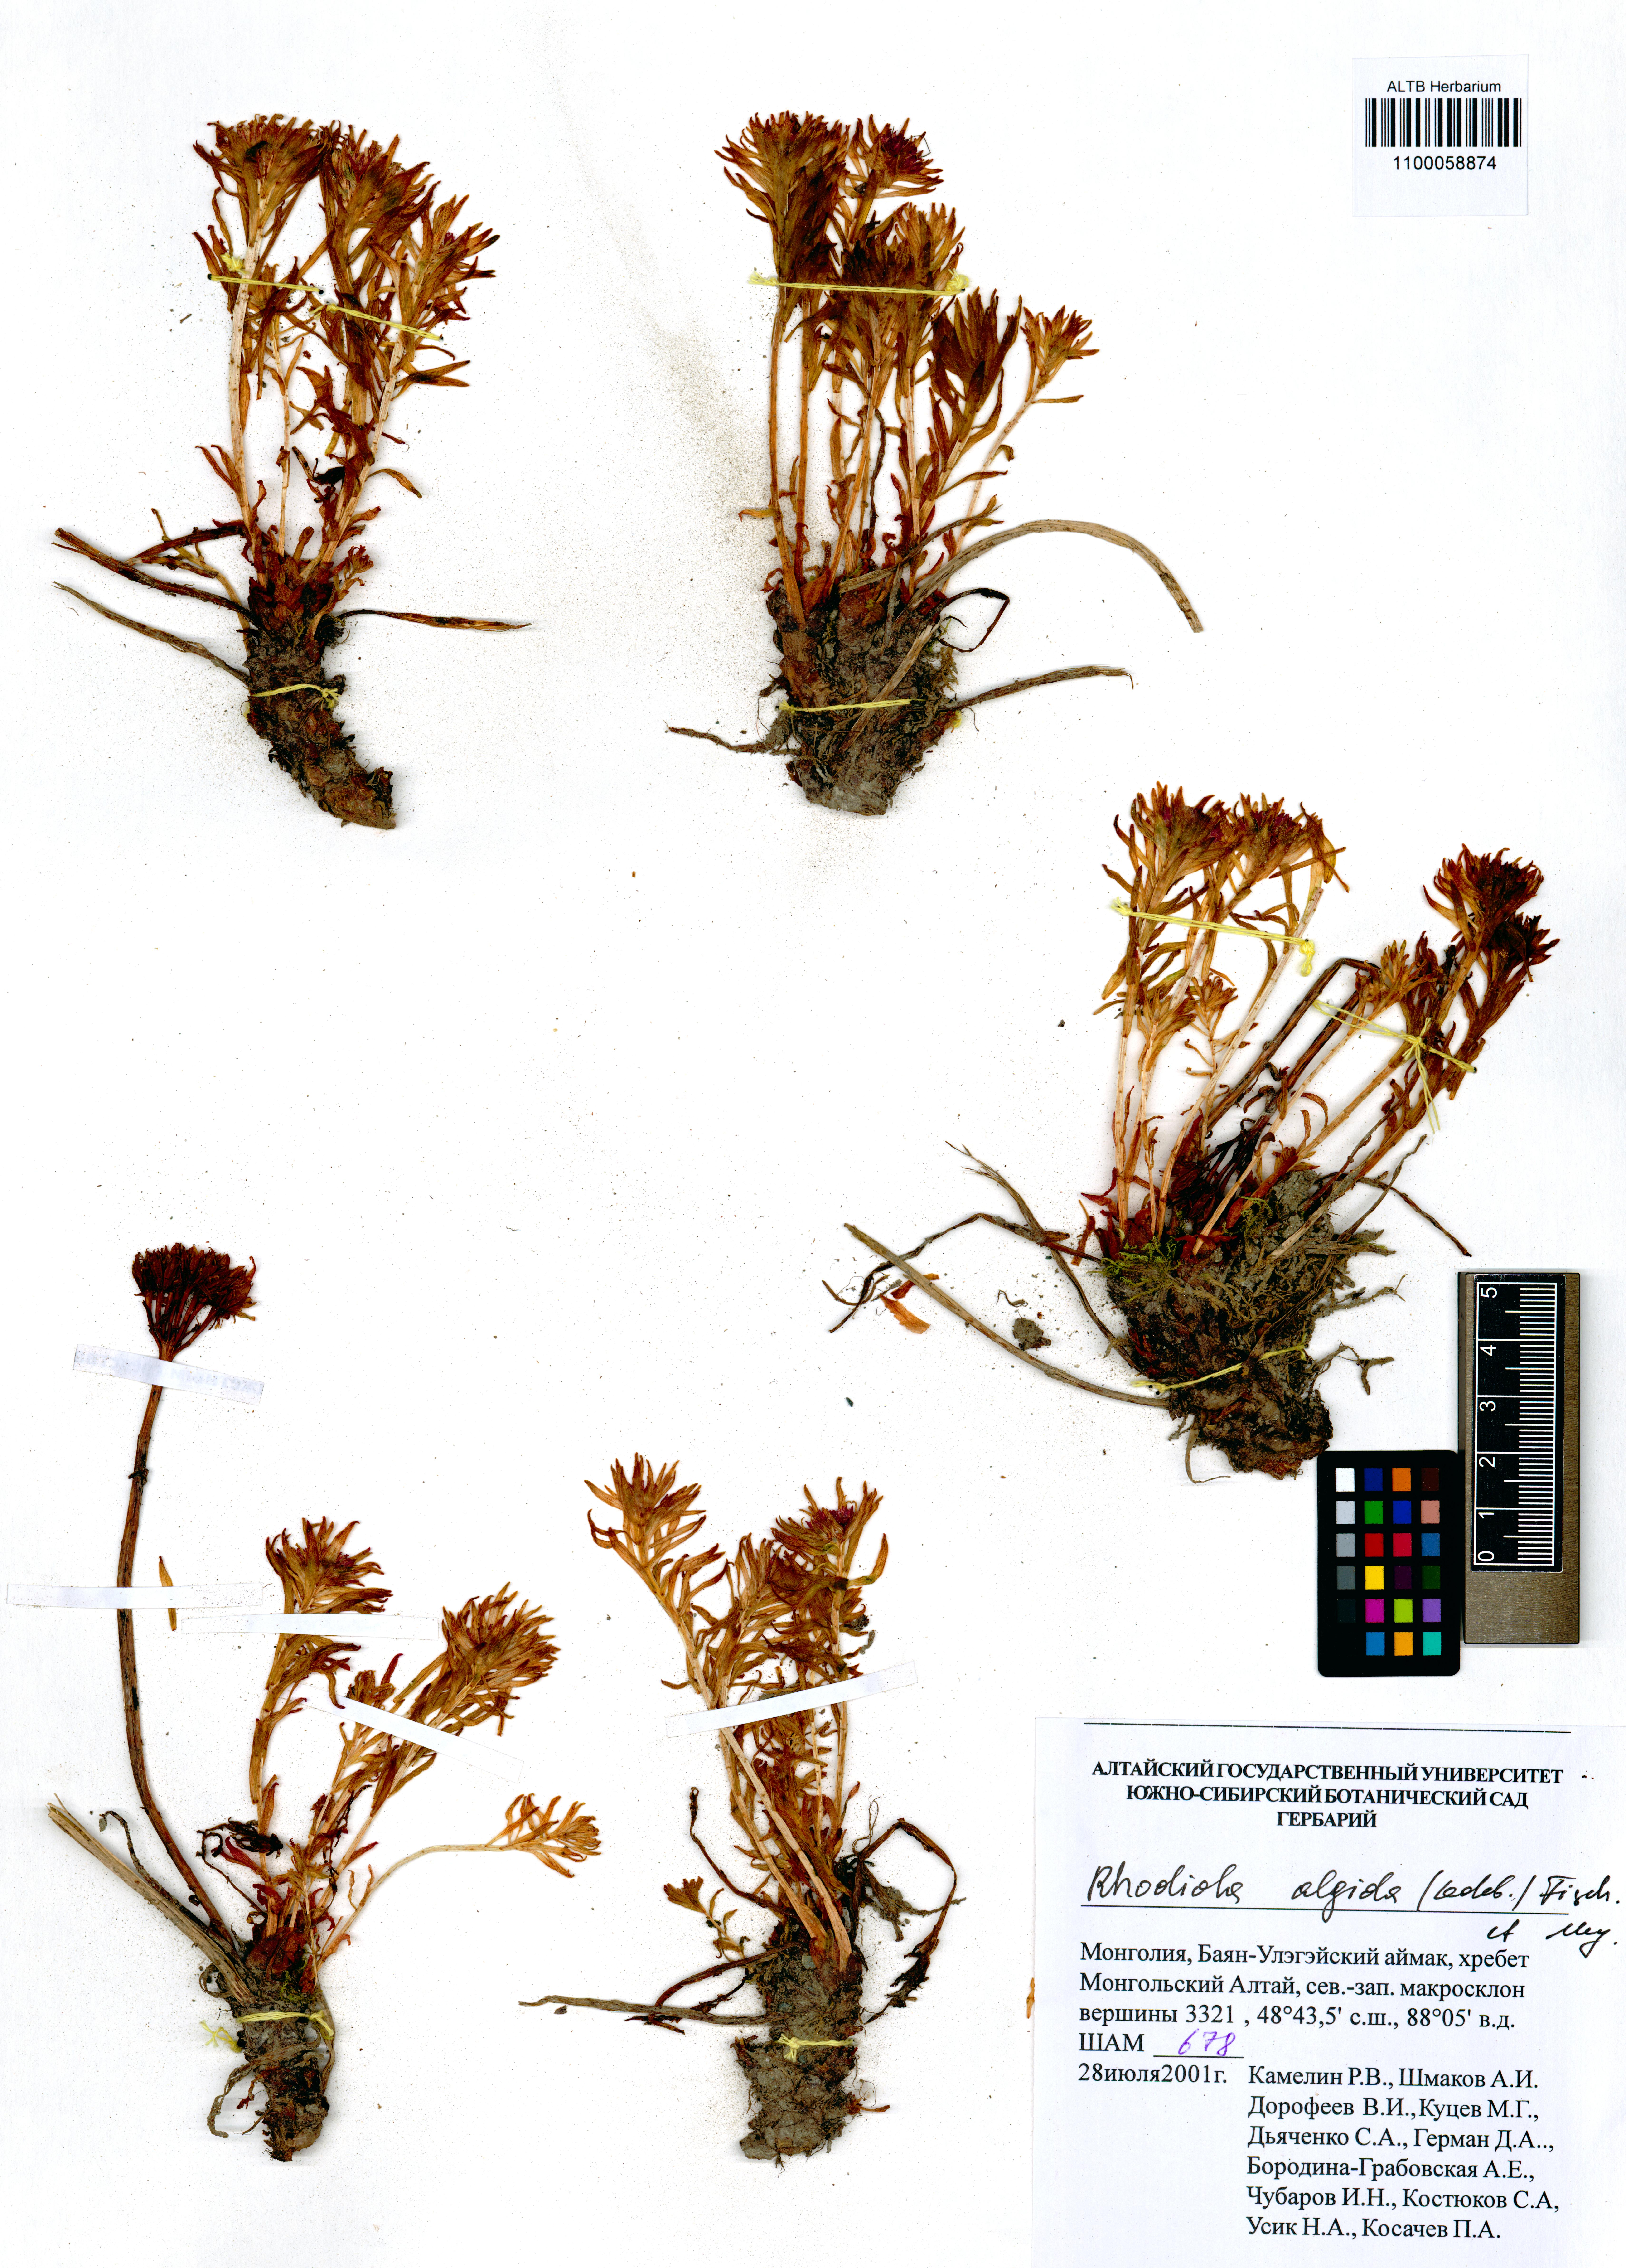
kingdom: Plantae
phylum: Tracheophyta
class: Magnoliopsida
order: Saxifragales
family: Crassulaceae
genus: Rhodiola
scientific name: Rhodiola algida
